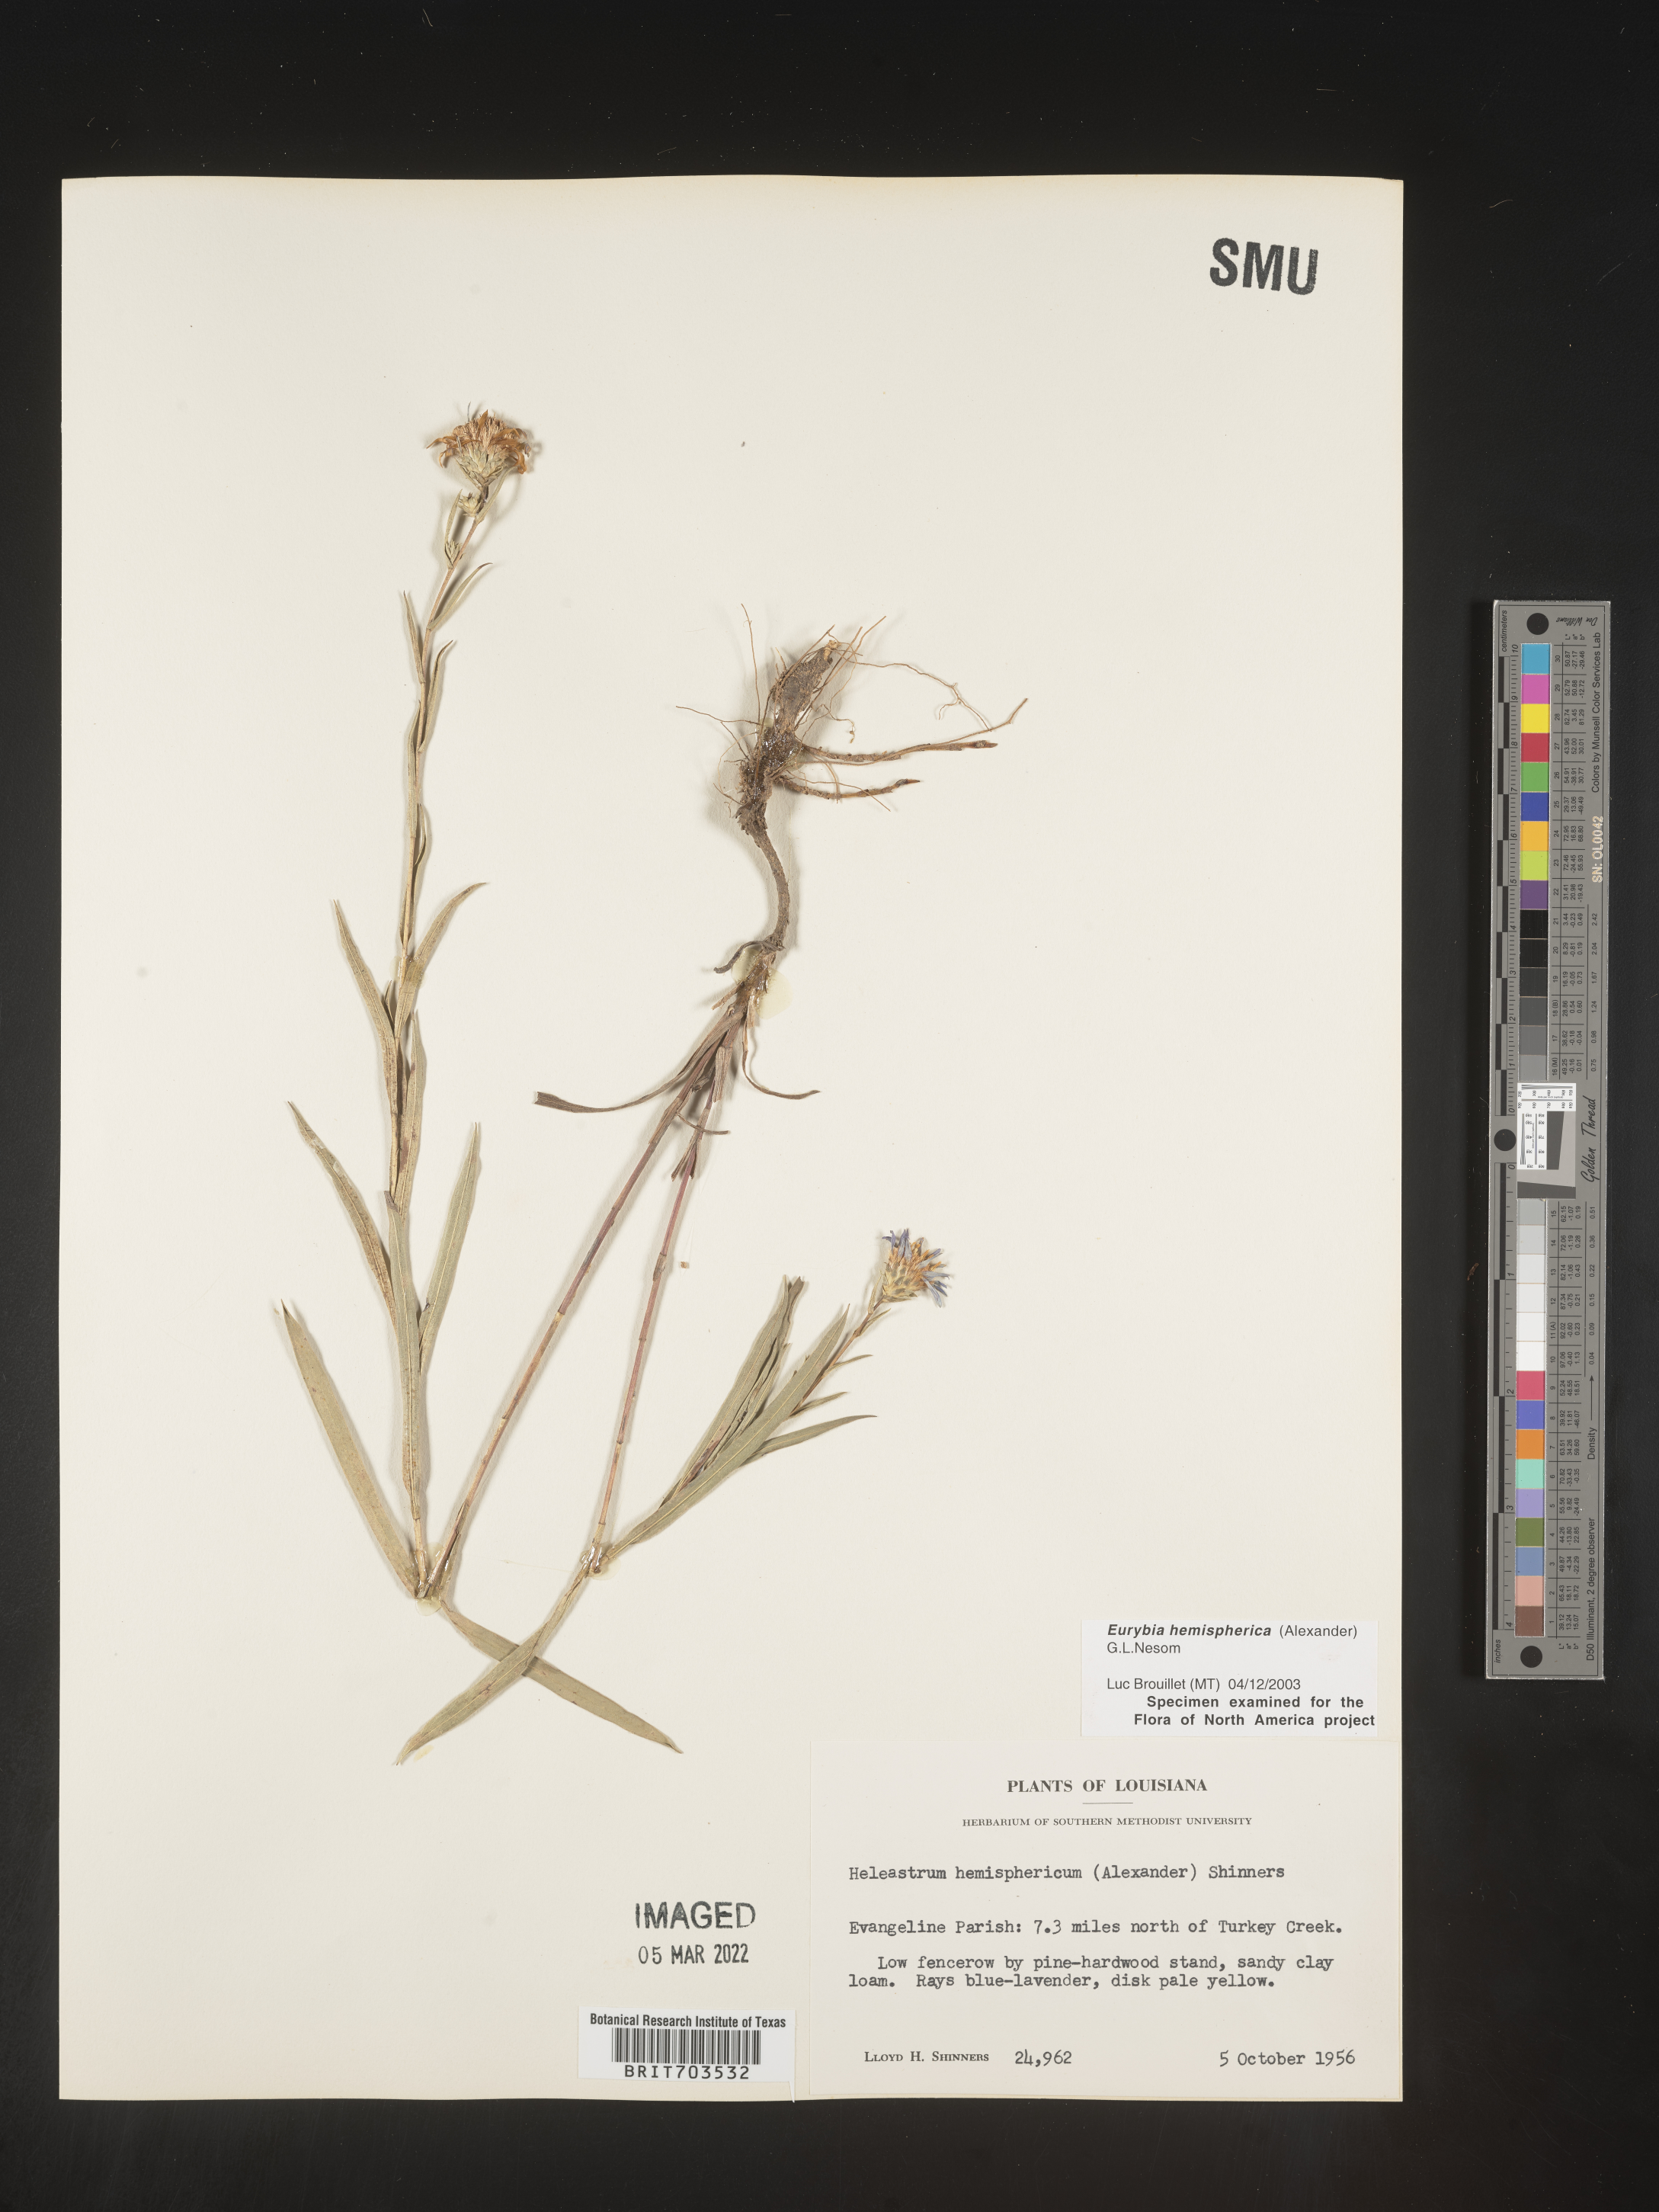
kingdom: Plantae
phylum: Tracheophyta
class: Magnoliopsida
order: Asterales
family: Asteraceae
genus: Eurybia
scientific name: Eurybia hemispherica
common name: Showy aster
